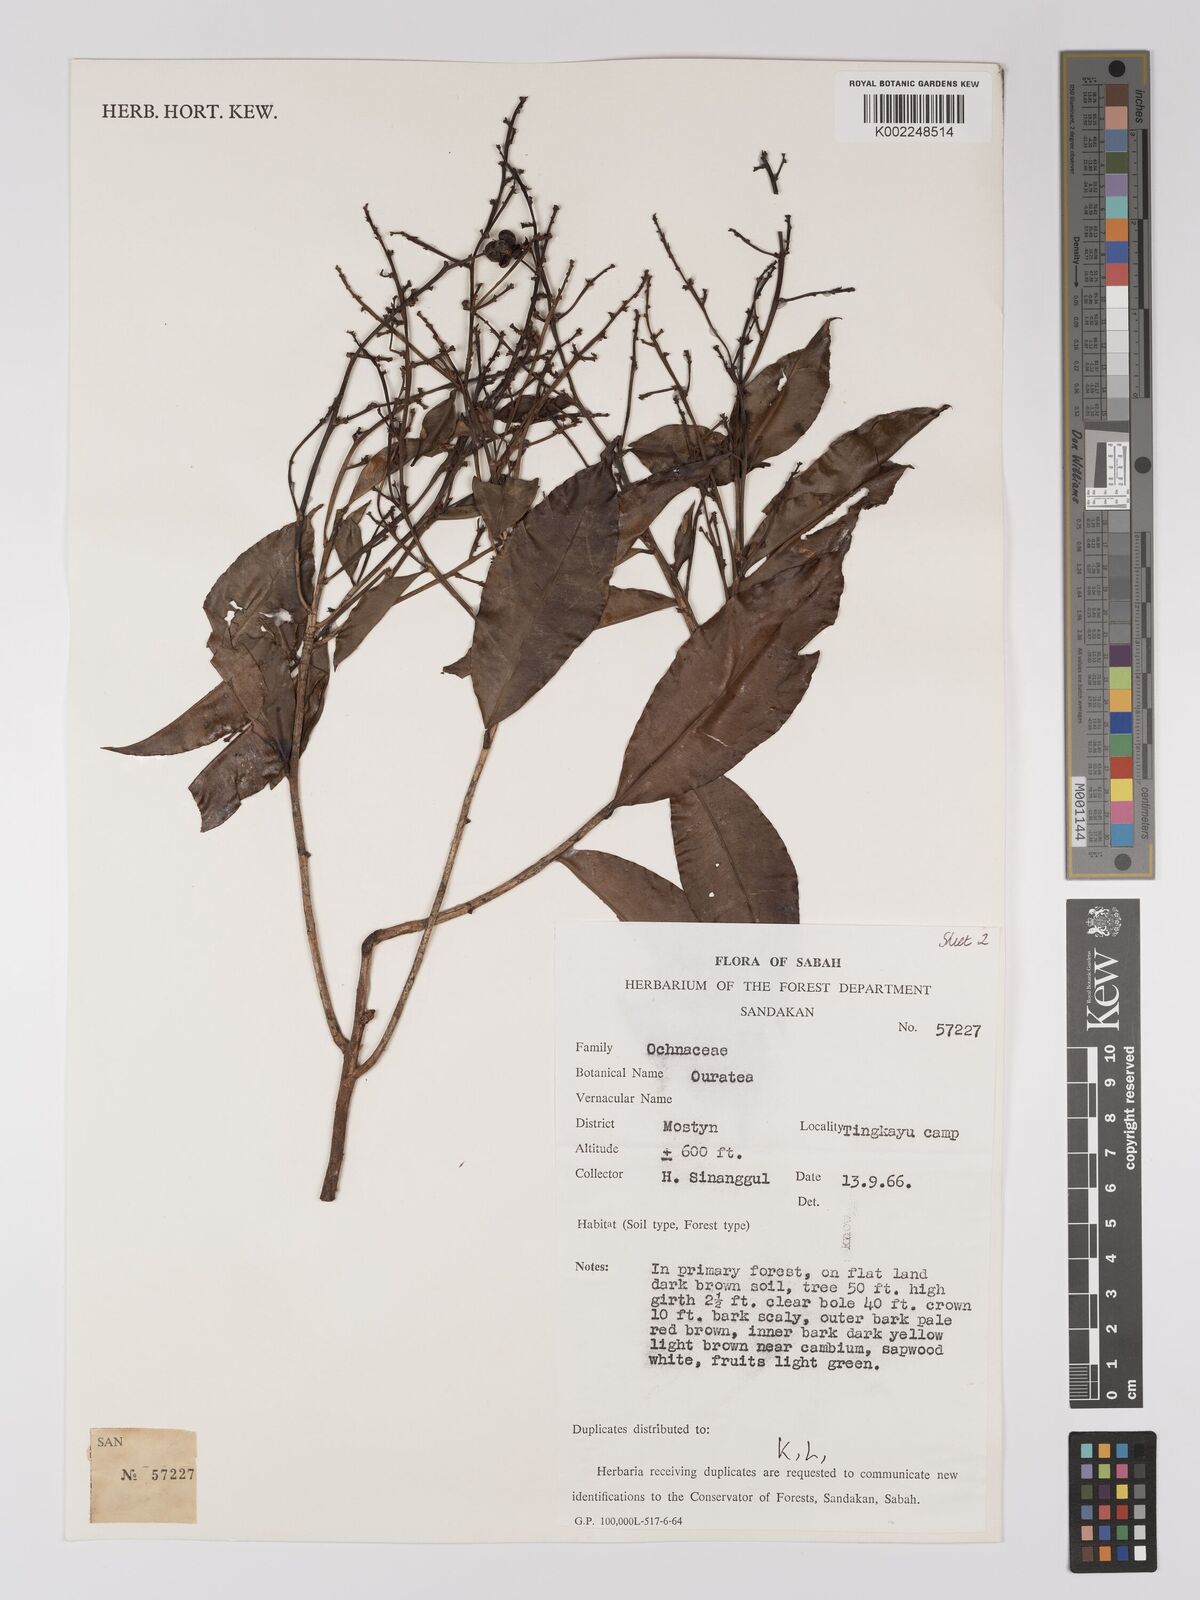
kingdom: Plantae
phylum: Tracheophyta
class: Magnoliopsida
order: Malpighiales
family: Ochnaceae
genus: Gomphia
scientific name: Gomphia serrata
